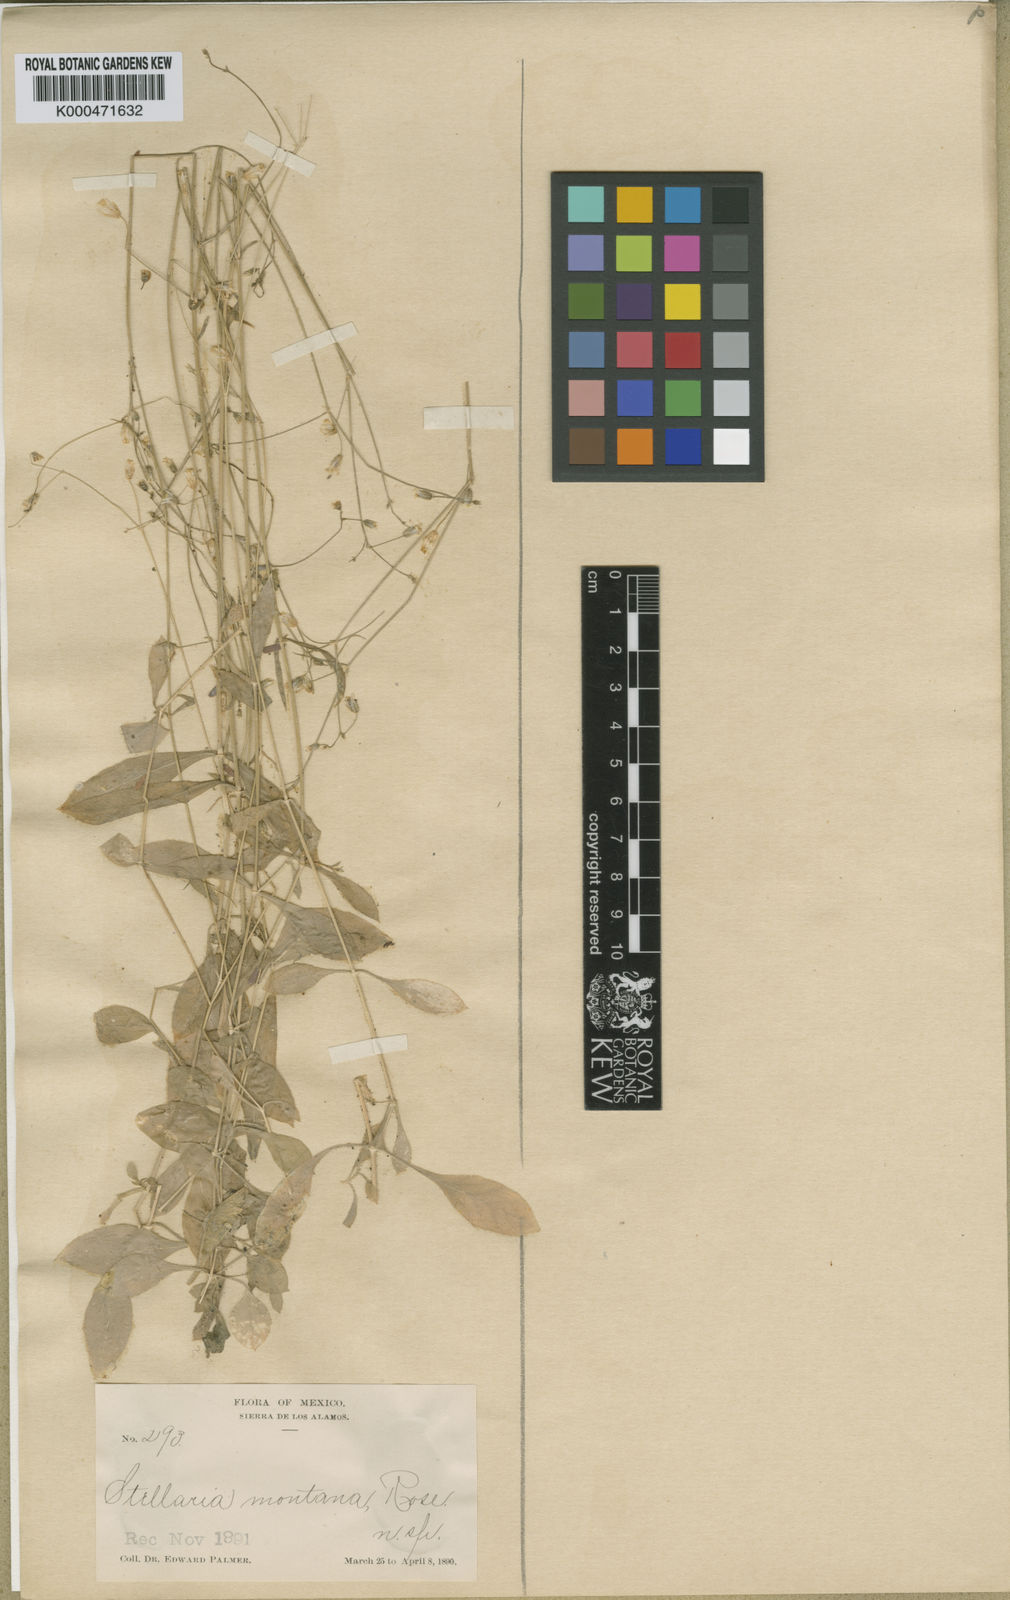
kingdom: Plantae
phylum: Tracheophyta
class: Magnoliopsida
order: Caryophyllales
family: Caryophyllaceae
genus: Cerastium
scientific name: Cerastium texanum
